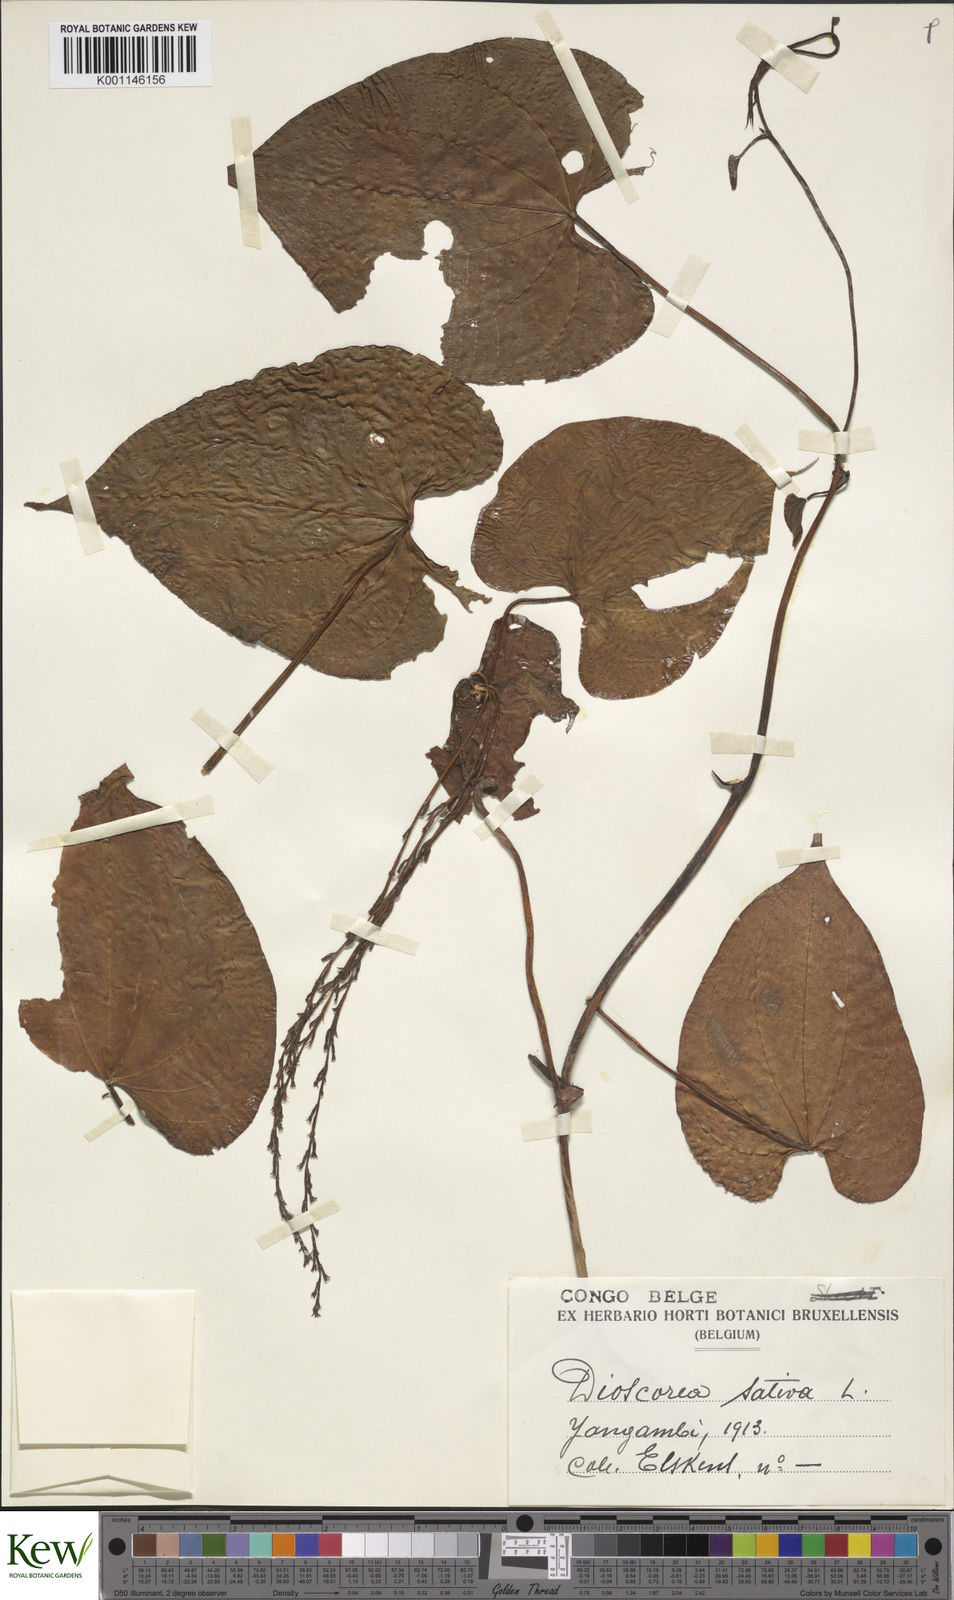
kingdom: Plantae
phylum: Tracheophyta
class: Liliopsida
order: Dioscoreales
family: Dioscoreaceae
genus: Dioscorea
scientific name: Dioscorea bulbifera
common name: Air yam
